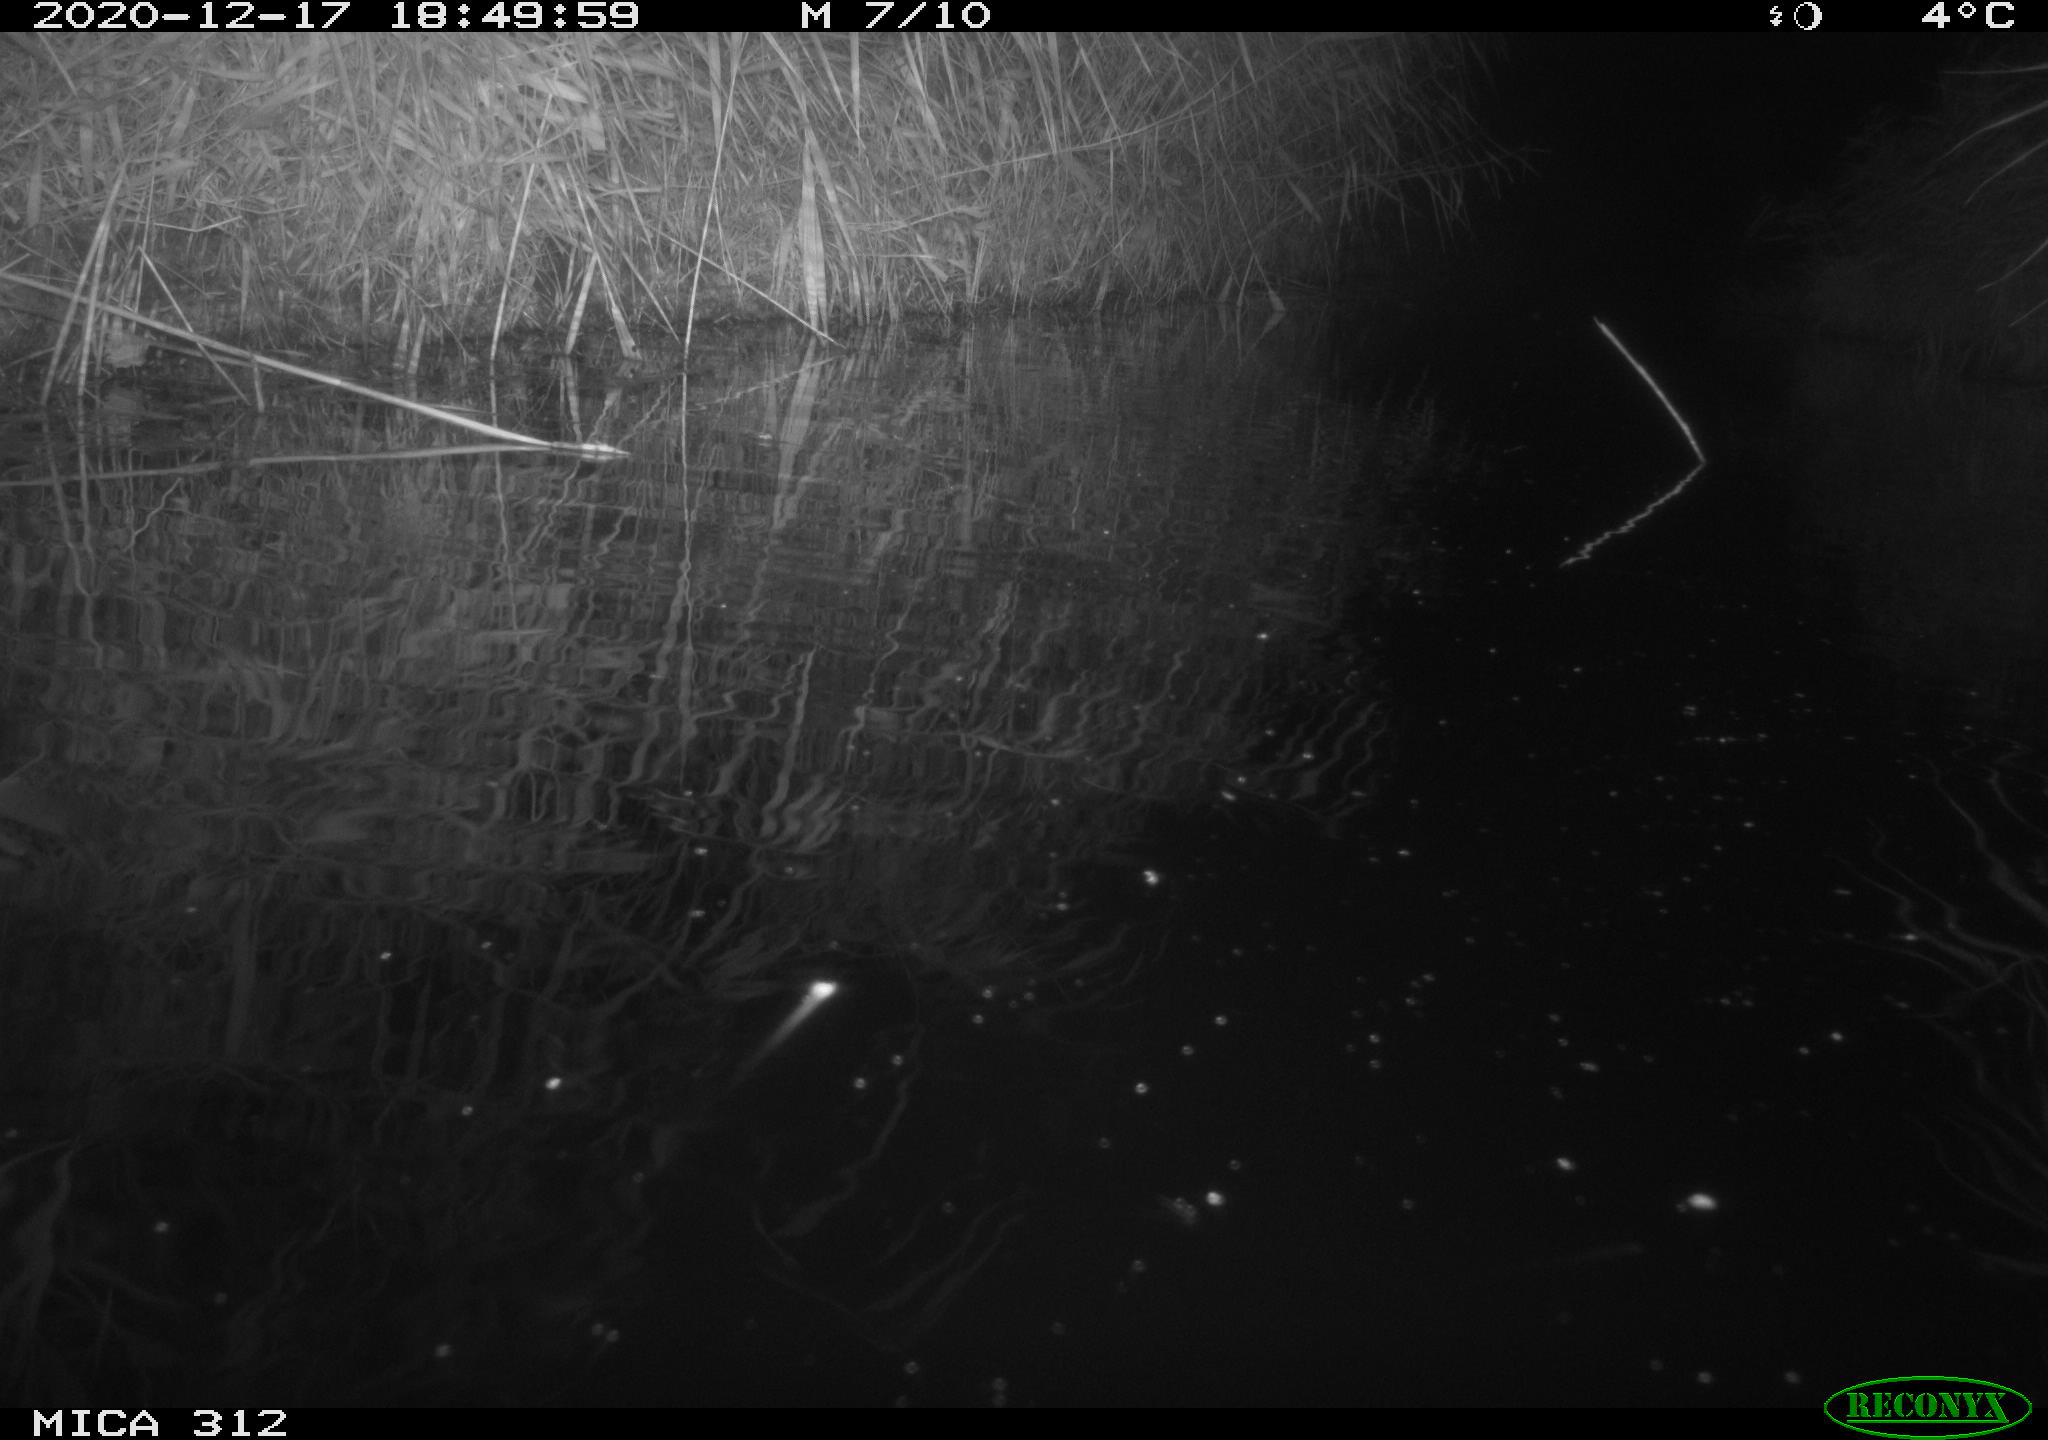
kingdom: Animalia
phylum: Chordata
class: Aves
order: Gruiformes
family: Rallidae
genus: Gallinula
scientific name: Gallinula chloropus
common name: Common moorhen
